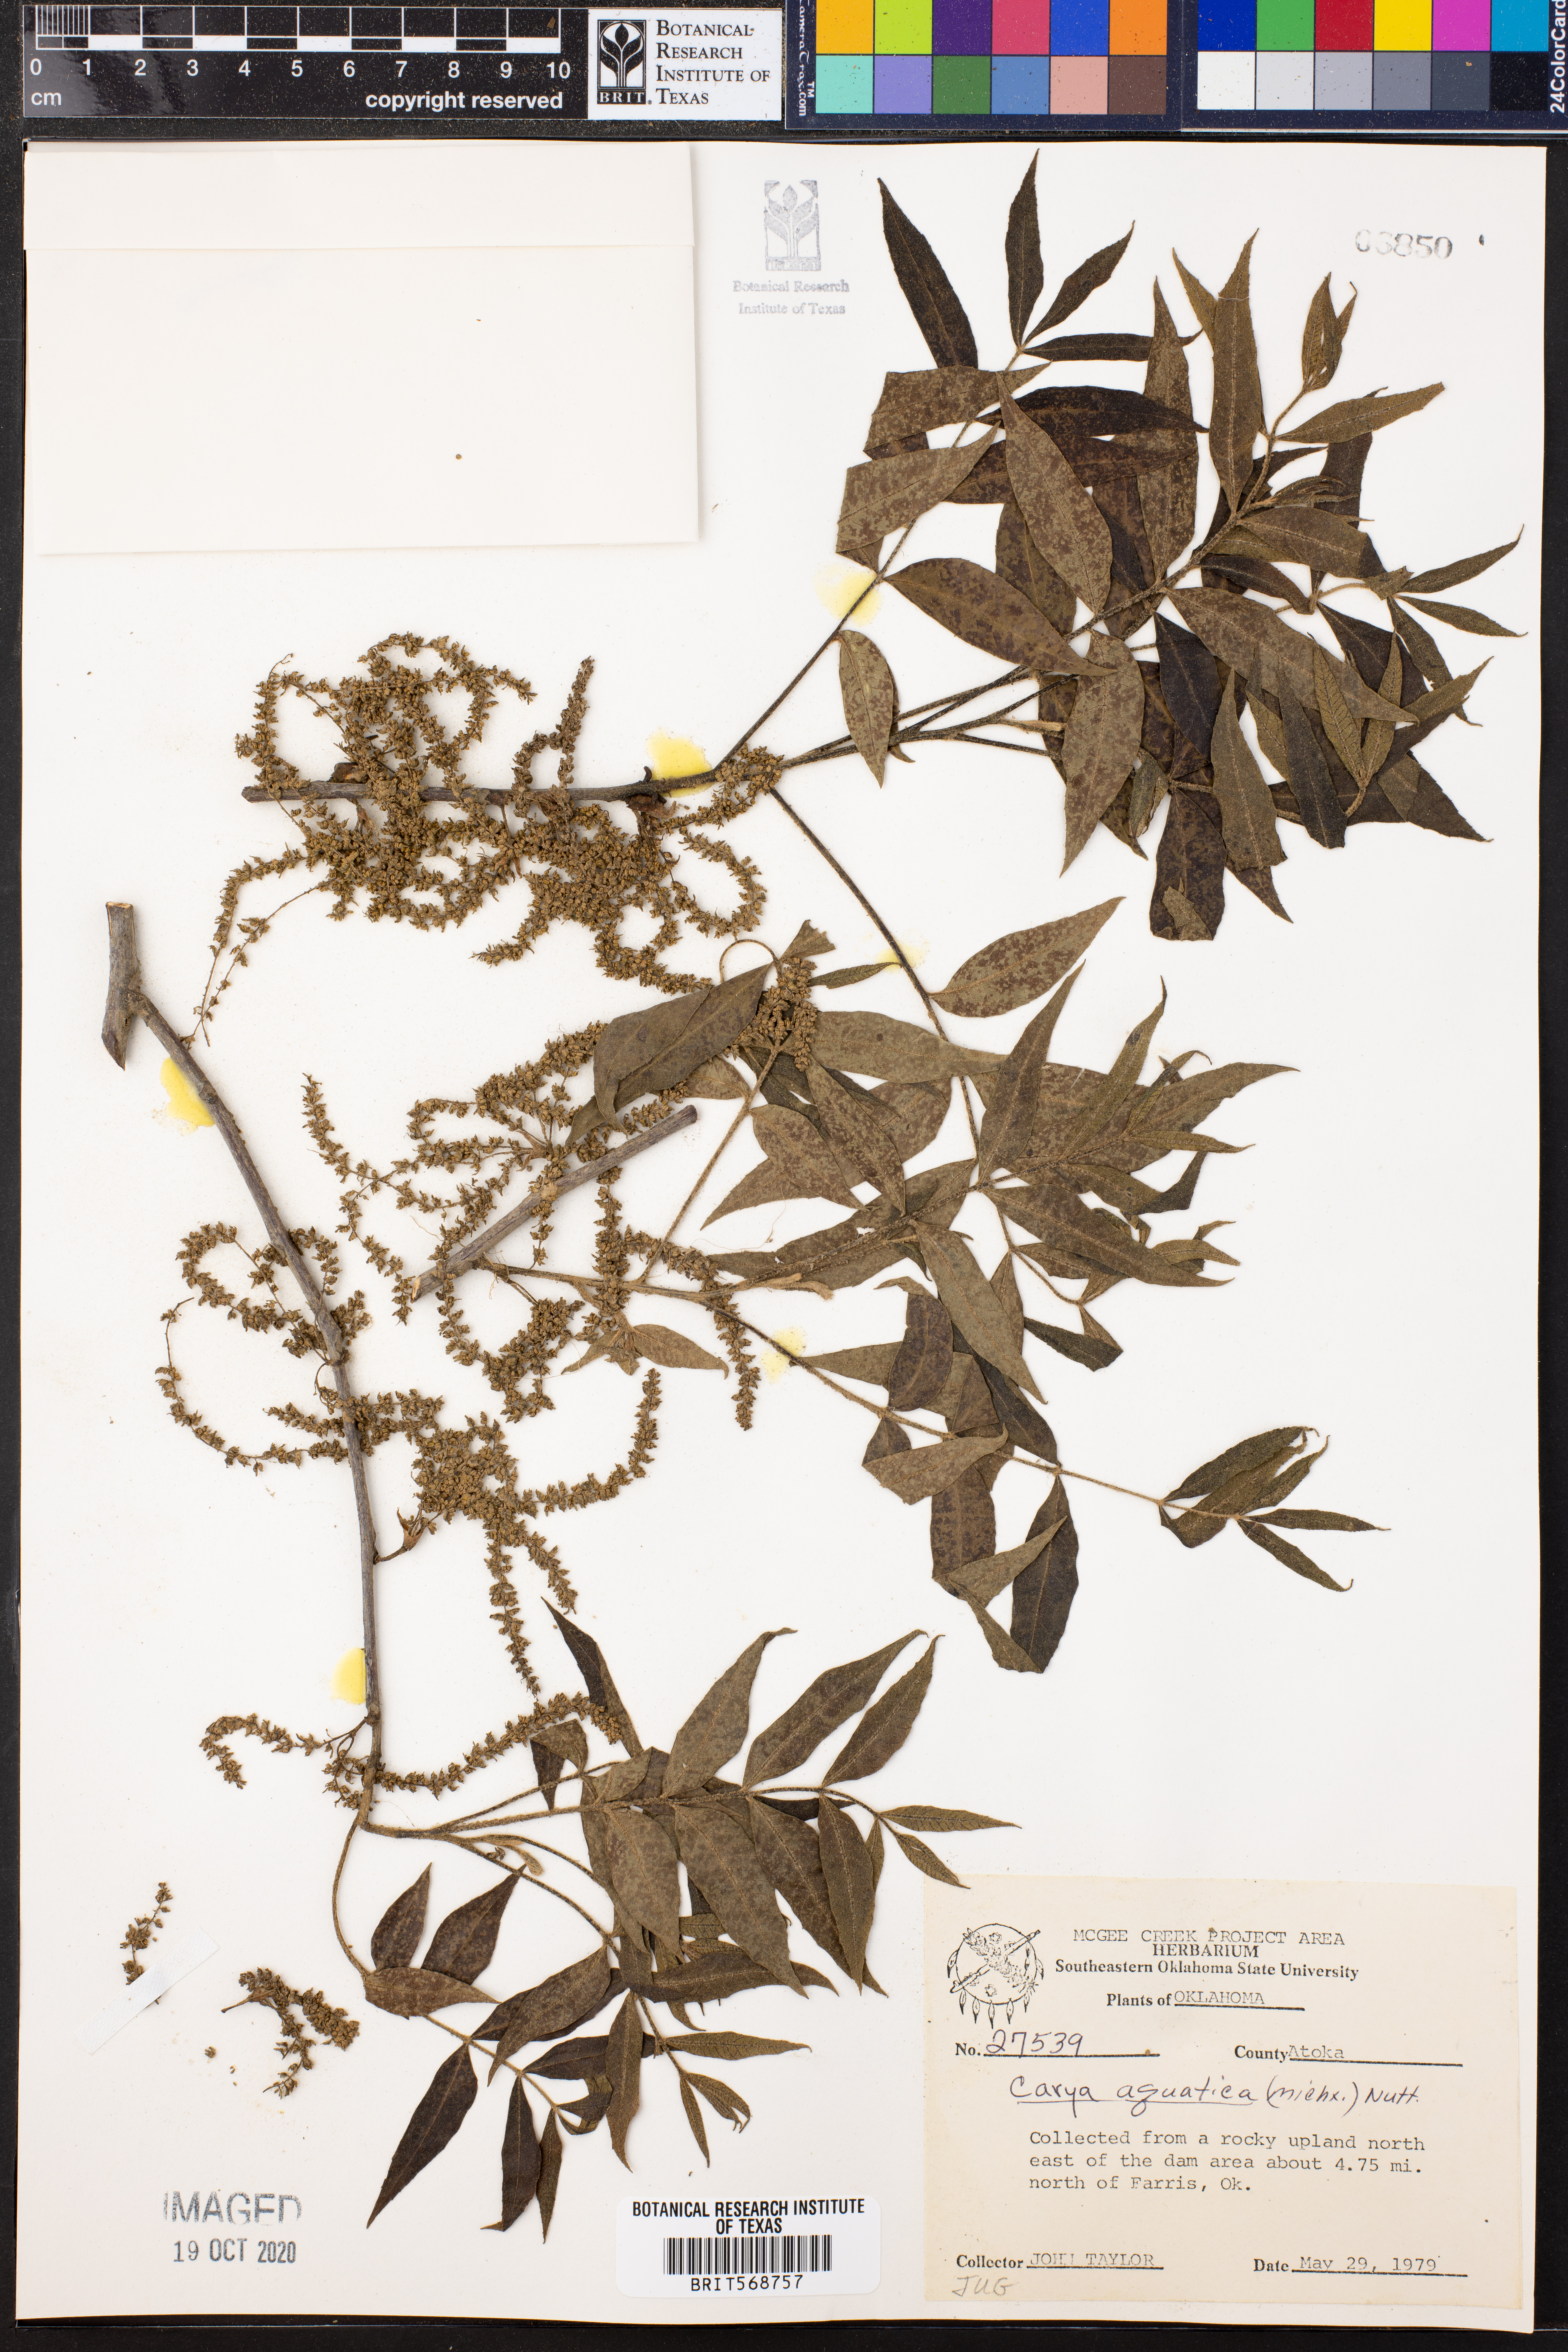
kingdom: Plantae
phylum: Tracheophyta
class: Magnoliopsida
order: Fagales
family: Juglandaceae
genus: Carya
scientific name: Carya aquatica
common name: Water hickory
